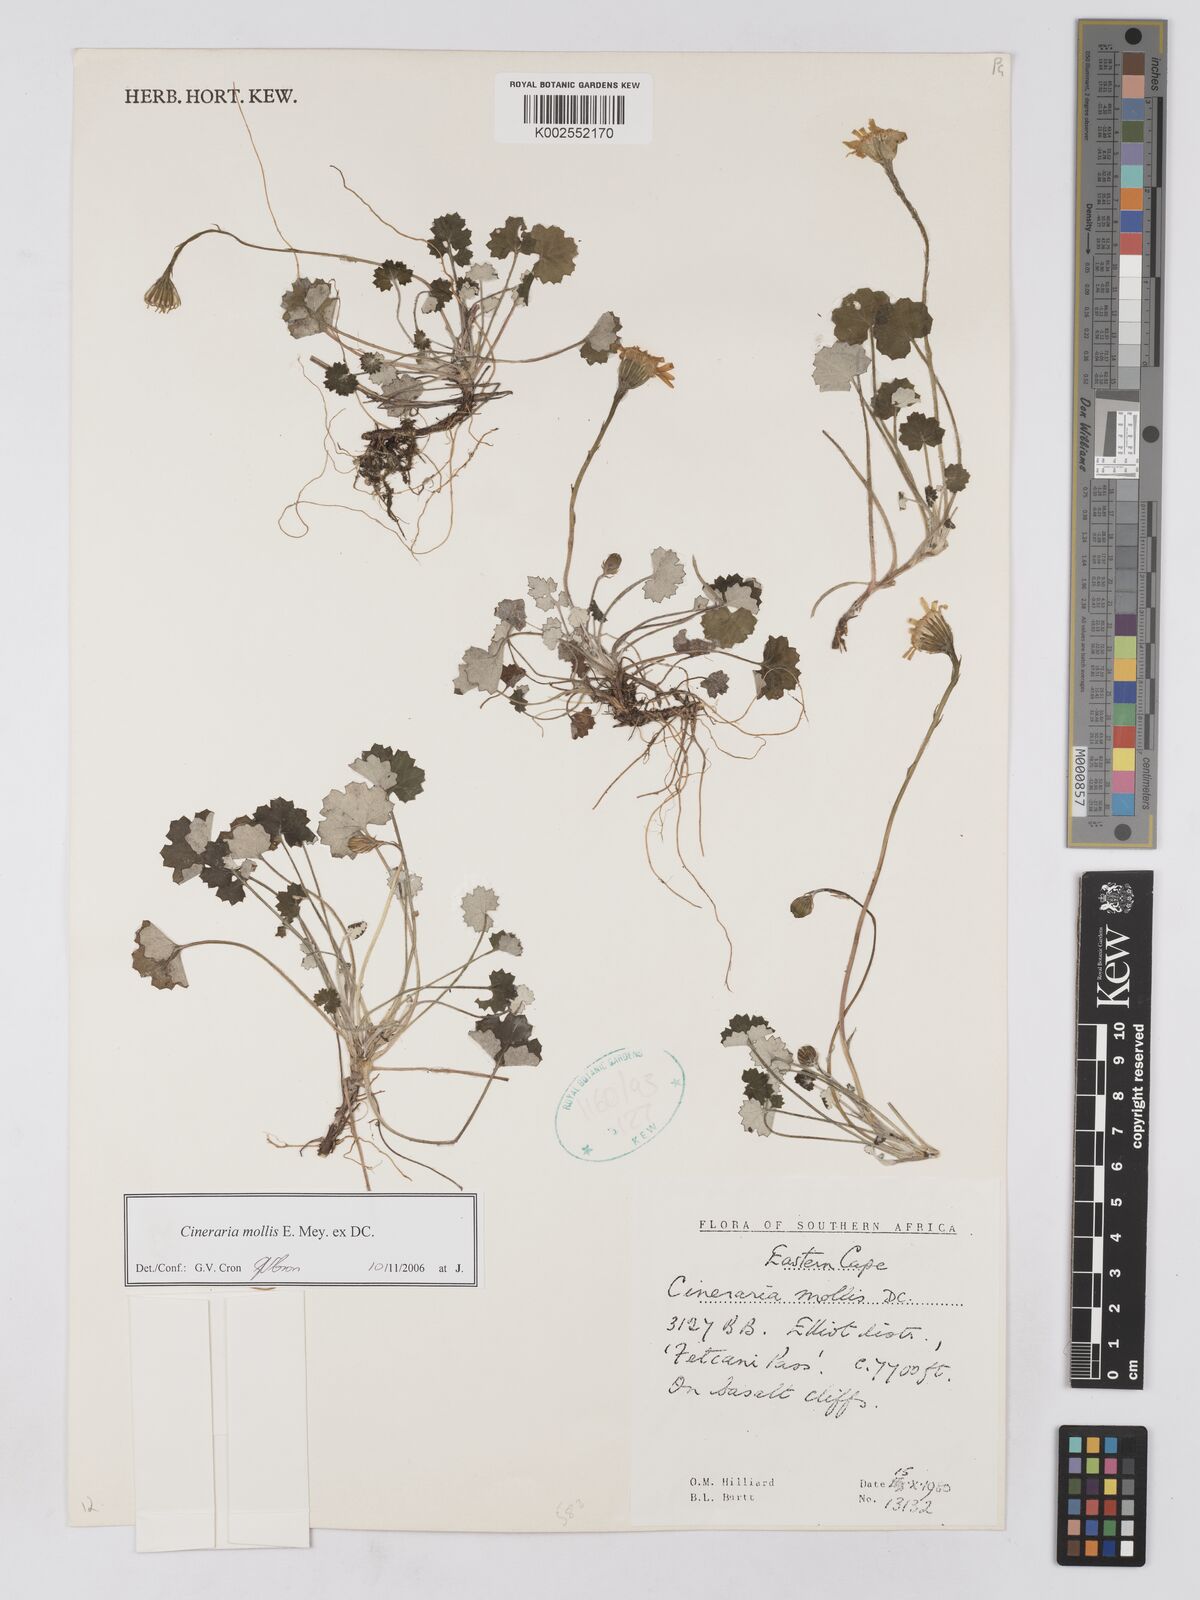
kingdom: Plantae
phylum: Tracheophyta
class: Magnoliopsida
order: Asterales
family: Asteraceae
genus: Cineraria
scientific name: Cineraria mollis
